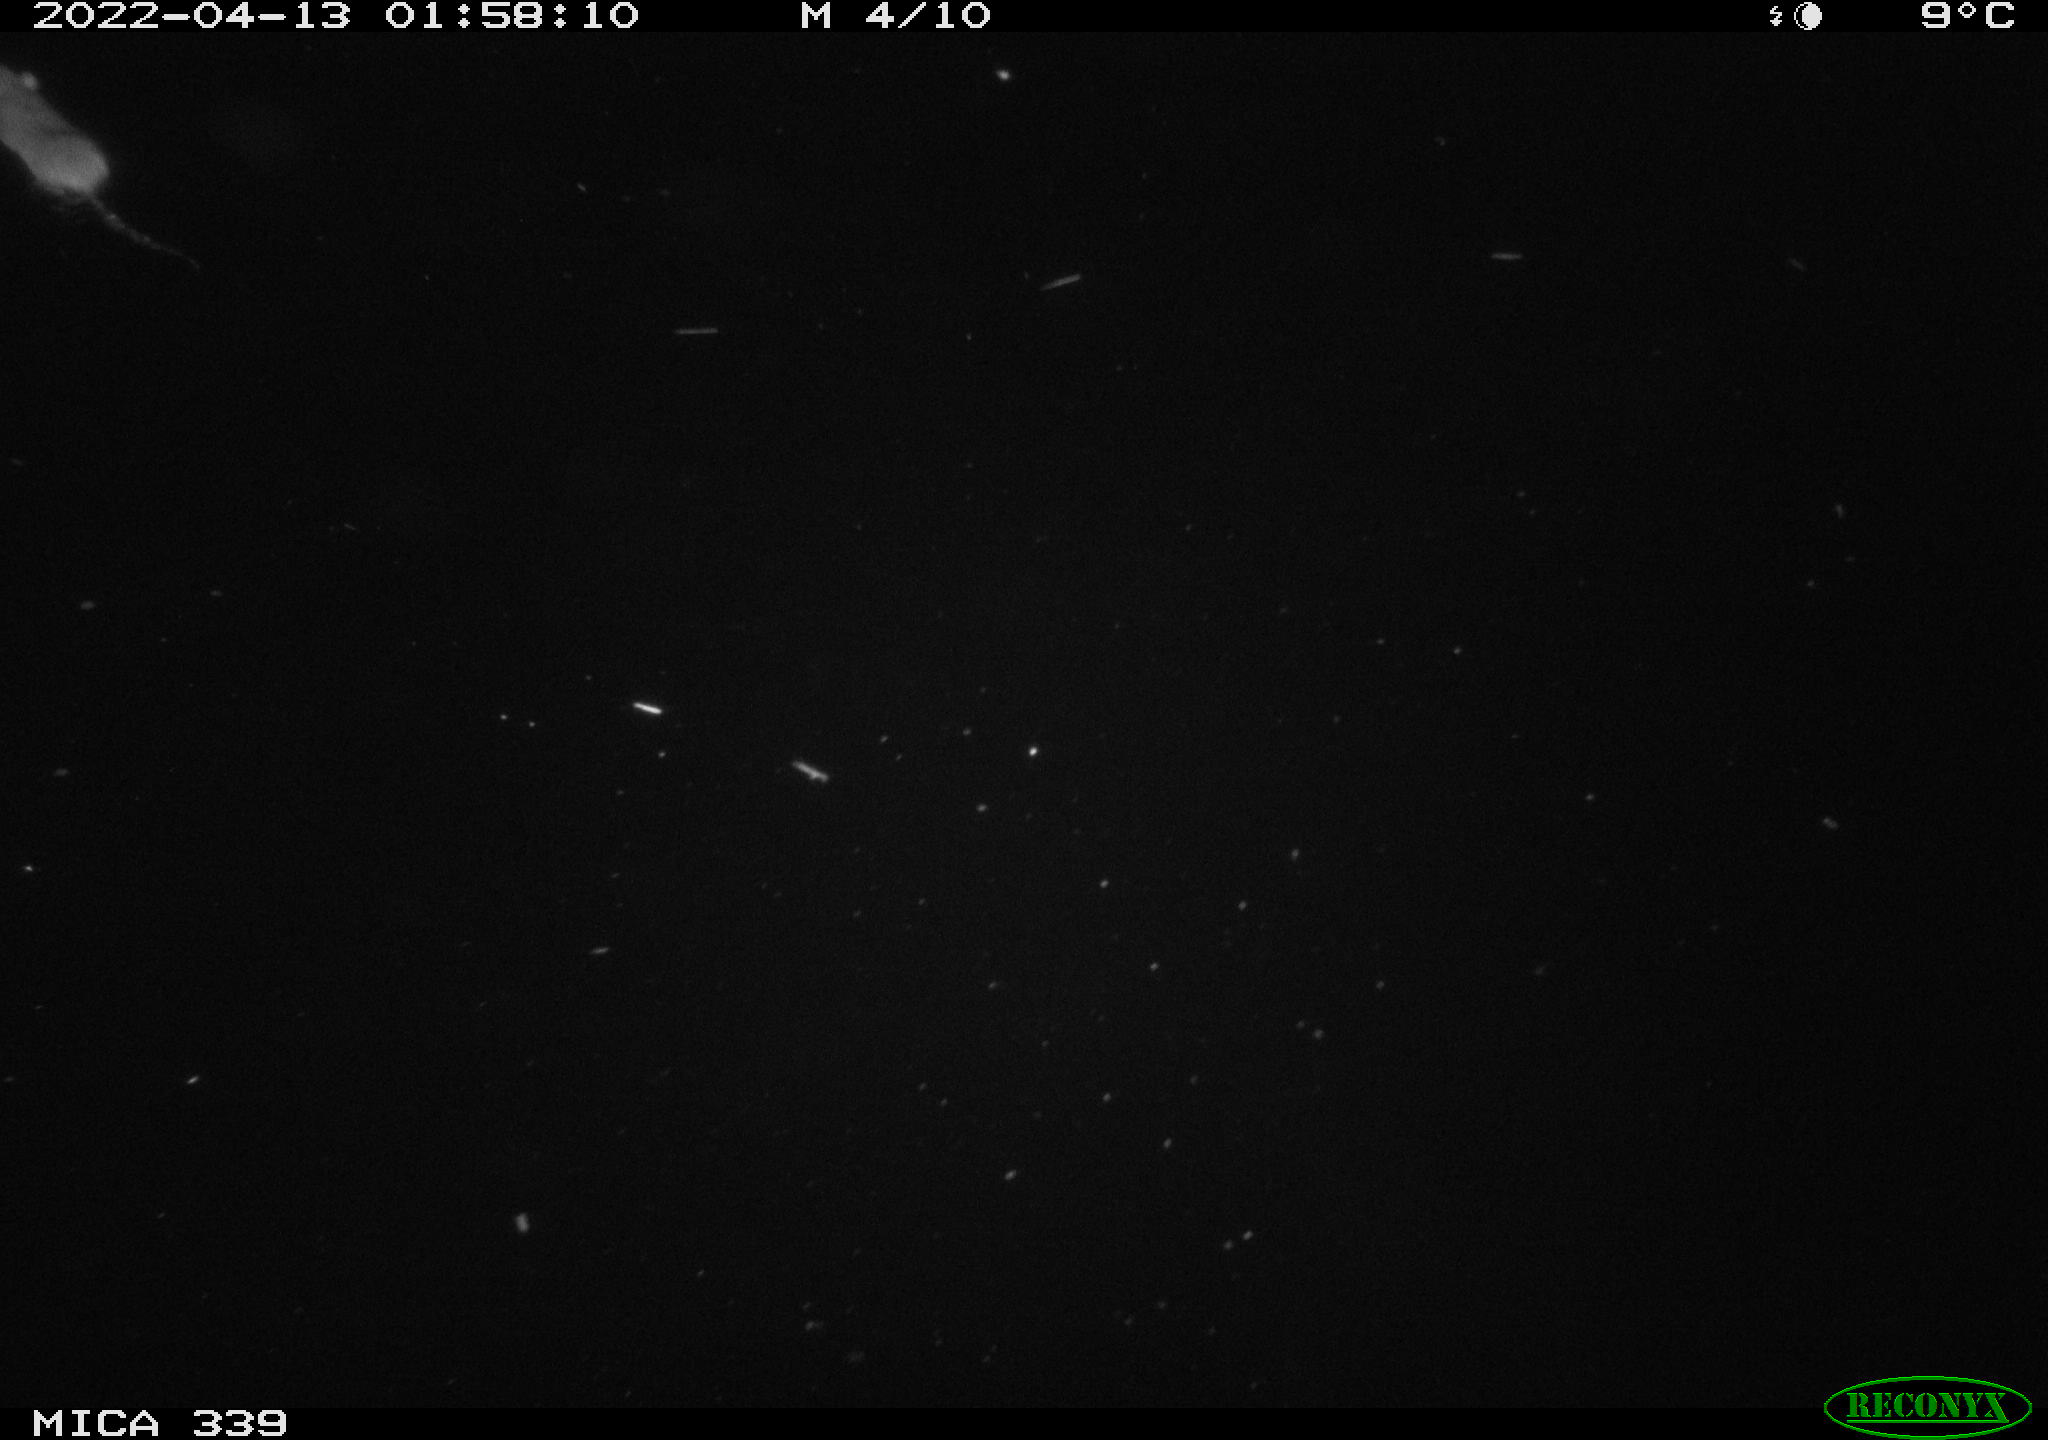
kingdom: Animalia
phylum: Chordata
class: Mammalia
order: Rodentia
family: Muridae
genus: Rattus
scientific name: Rattus norvegicus
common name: Brown rat
